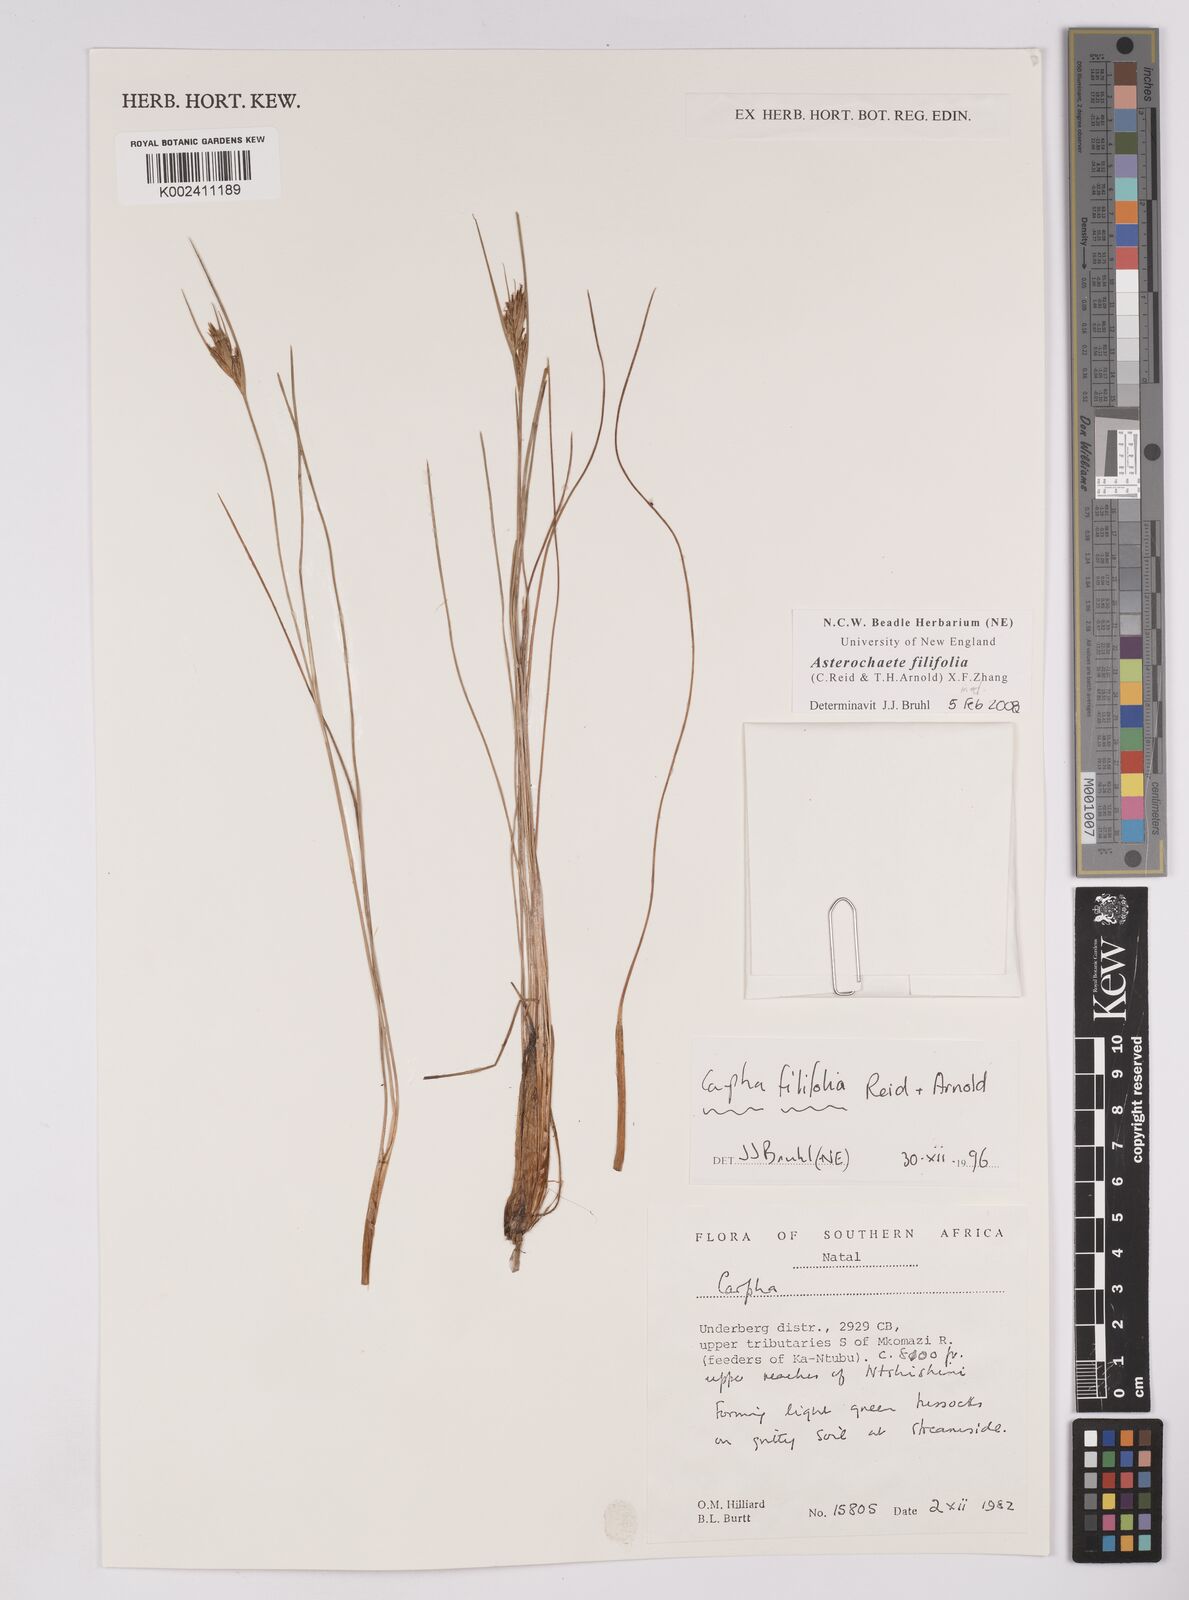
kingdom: Plantae
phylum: Tracheophyta
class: Liliopsida
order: Poales
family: Cyperaceae
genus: Carpha
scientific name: Carpha filifolia
